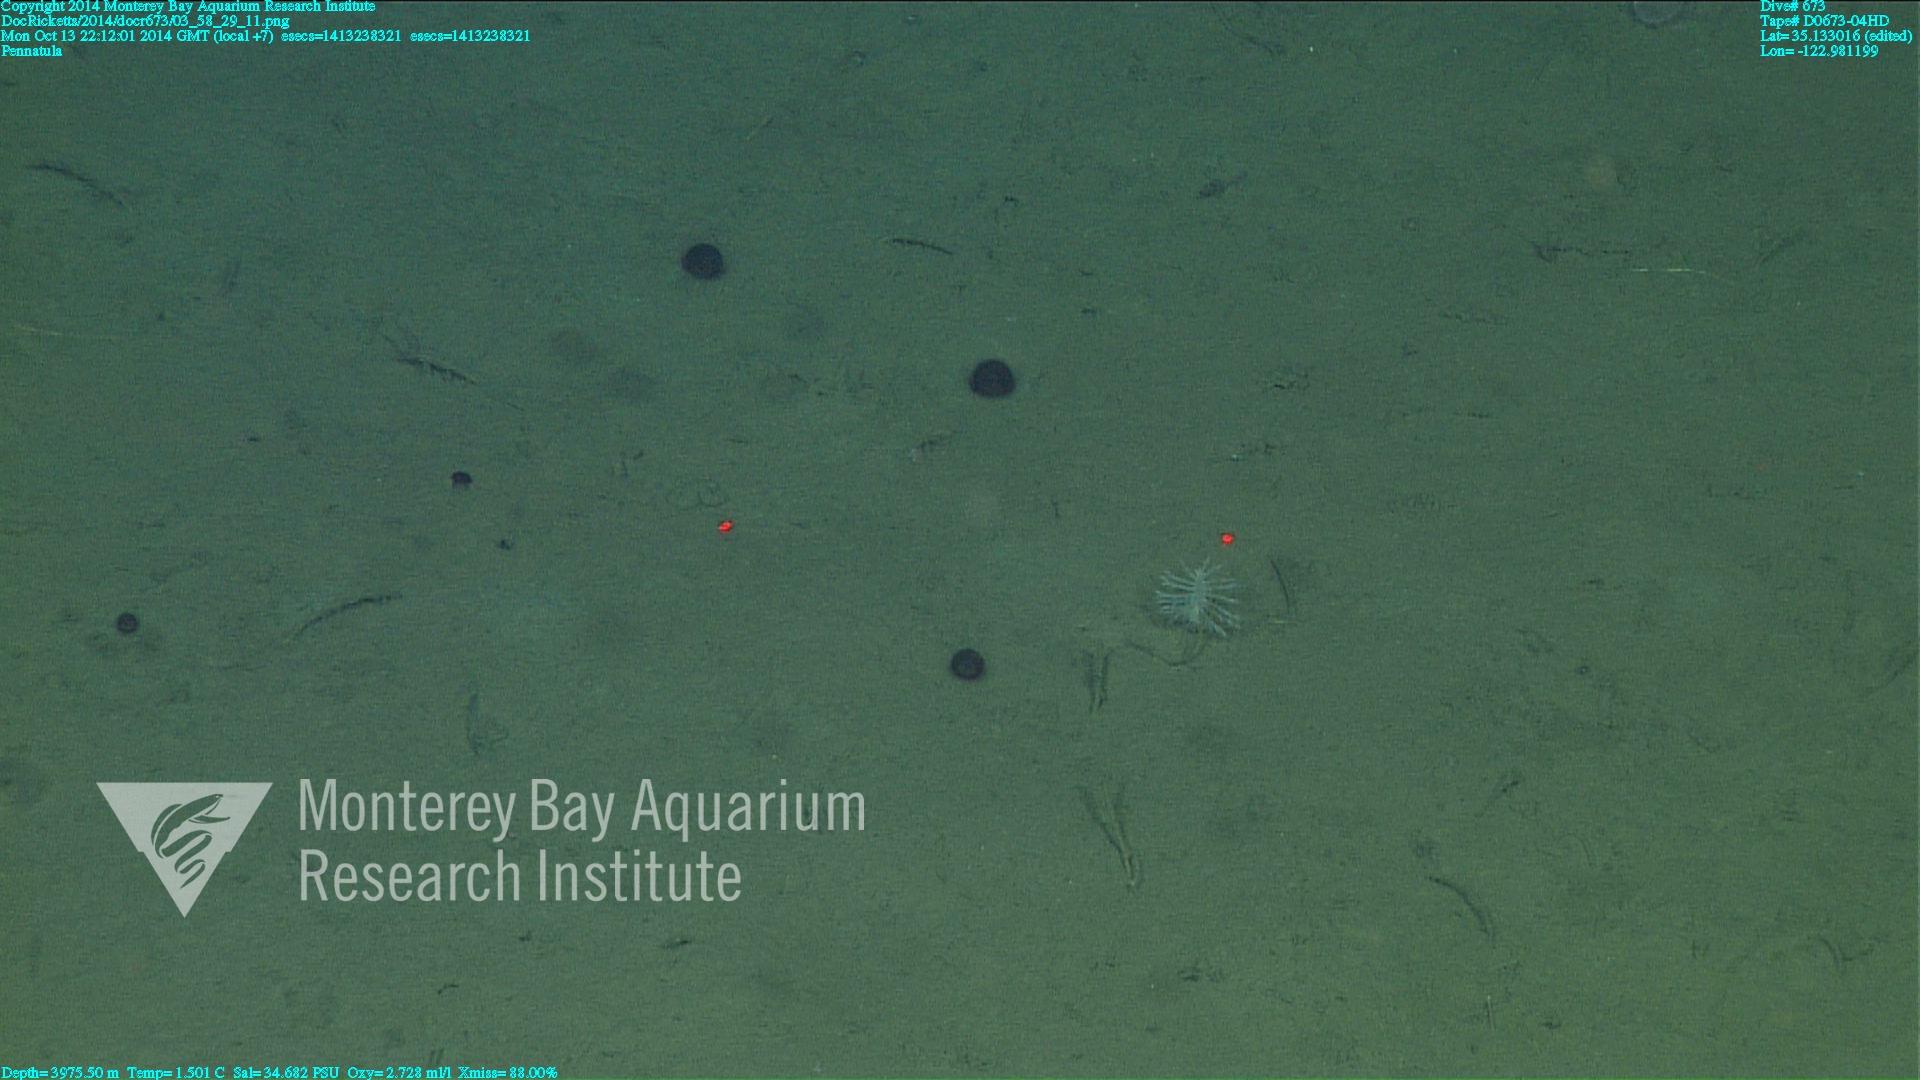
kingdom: Animalia
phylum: Cnidaria
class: Anthozoa
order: Scleralcyonacea
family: Pennatulidae
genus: Pennatula
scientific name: Pennatula
